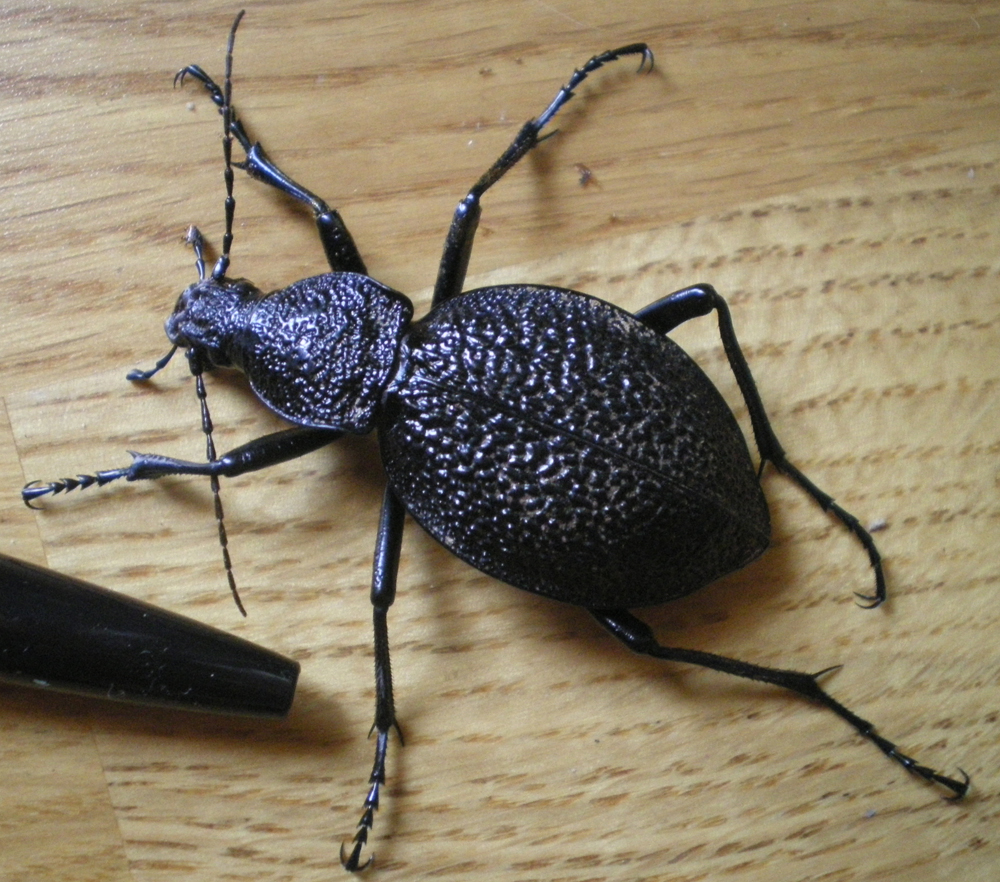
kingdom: Animalia
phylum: Arthropoda
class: Insecta
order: Coleoptera
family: Carabidae
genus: Carabus
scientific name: Carabus gigas
